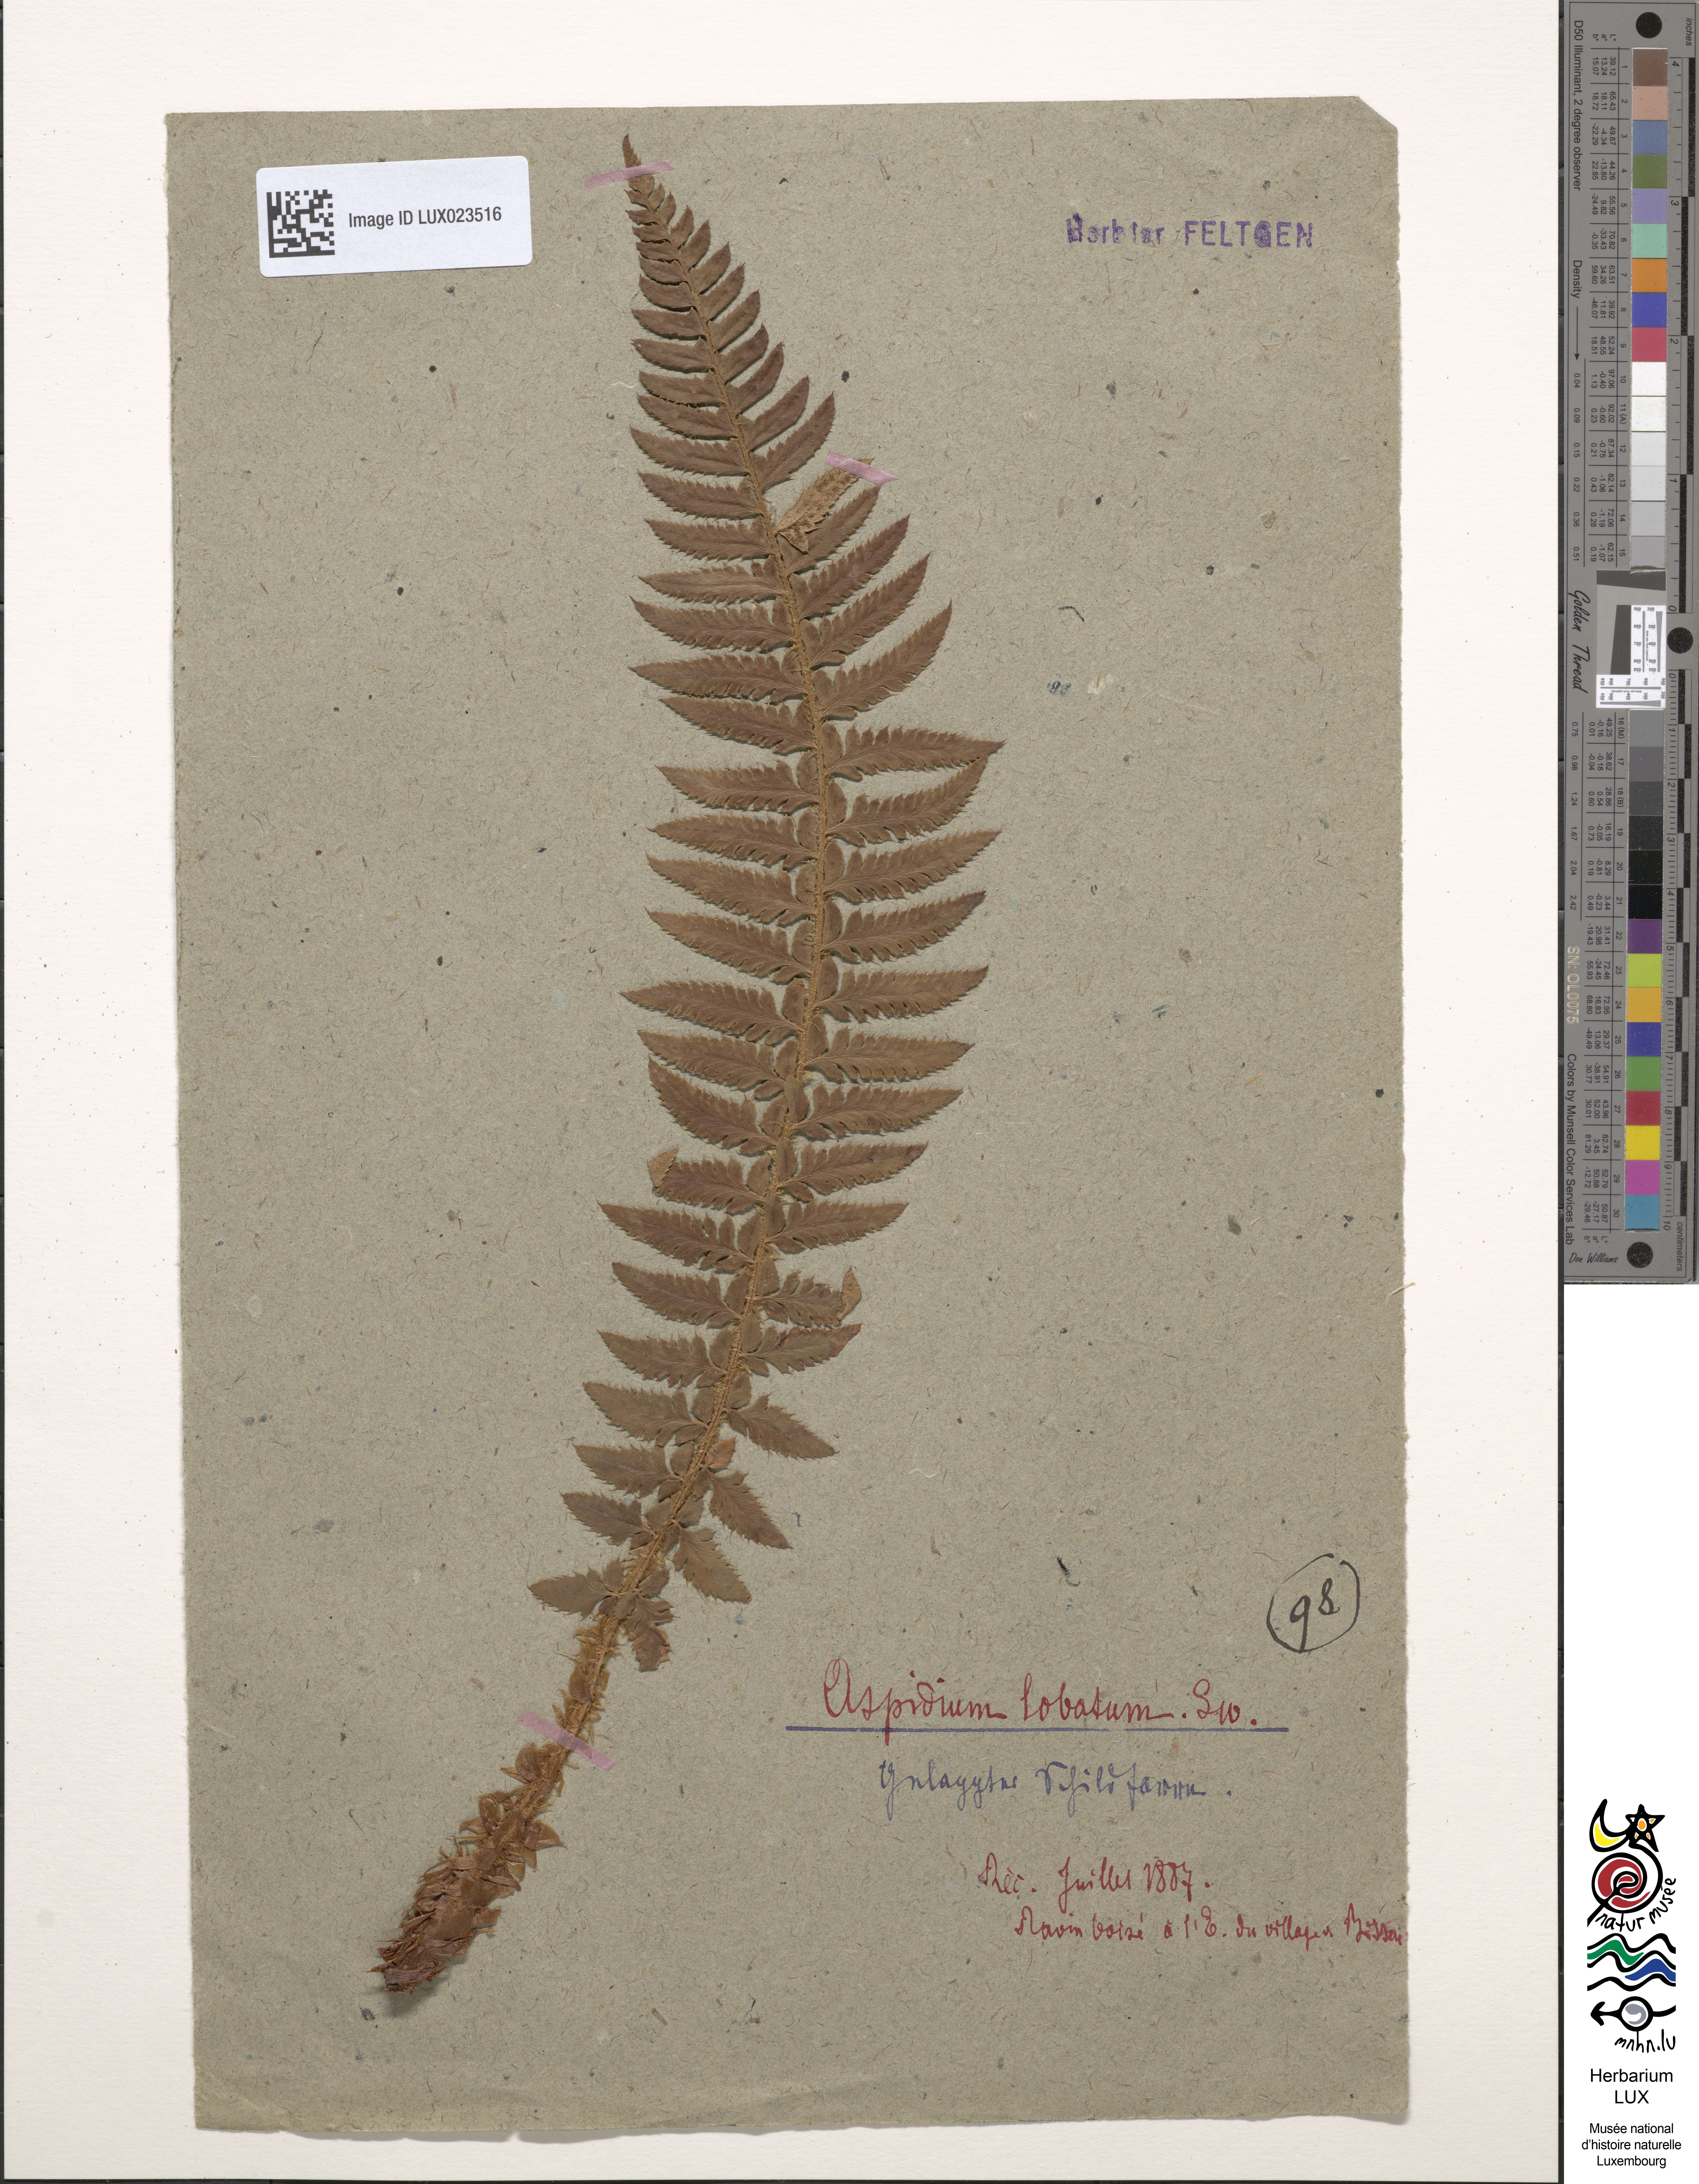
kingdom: Plantae
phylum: Tracheophyta
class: Polypodiopsida
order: Polypodiales
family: Dryopteridaceae
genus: Polystichum
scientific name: Polystichum aculeatum
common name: Hard shield-fern
